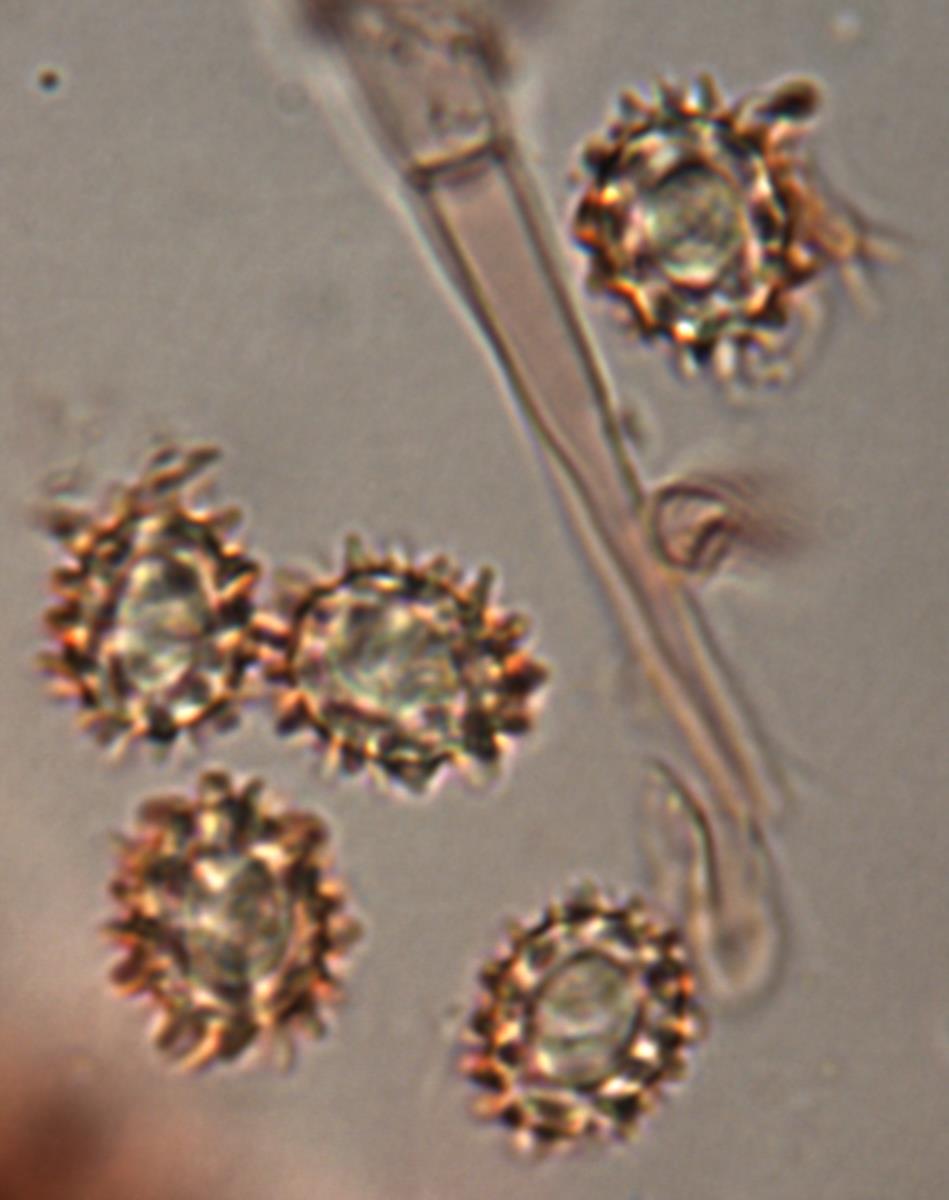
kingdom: Fungi
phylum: Basidiomycota
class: Agaricomycetes
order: Agaricales
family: Stephanosporaceae
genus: Stephanospora
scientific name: Stephanospora kanuka
